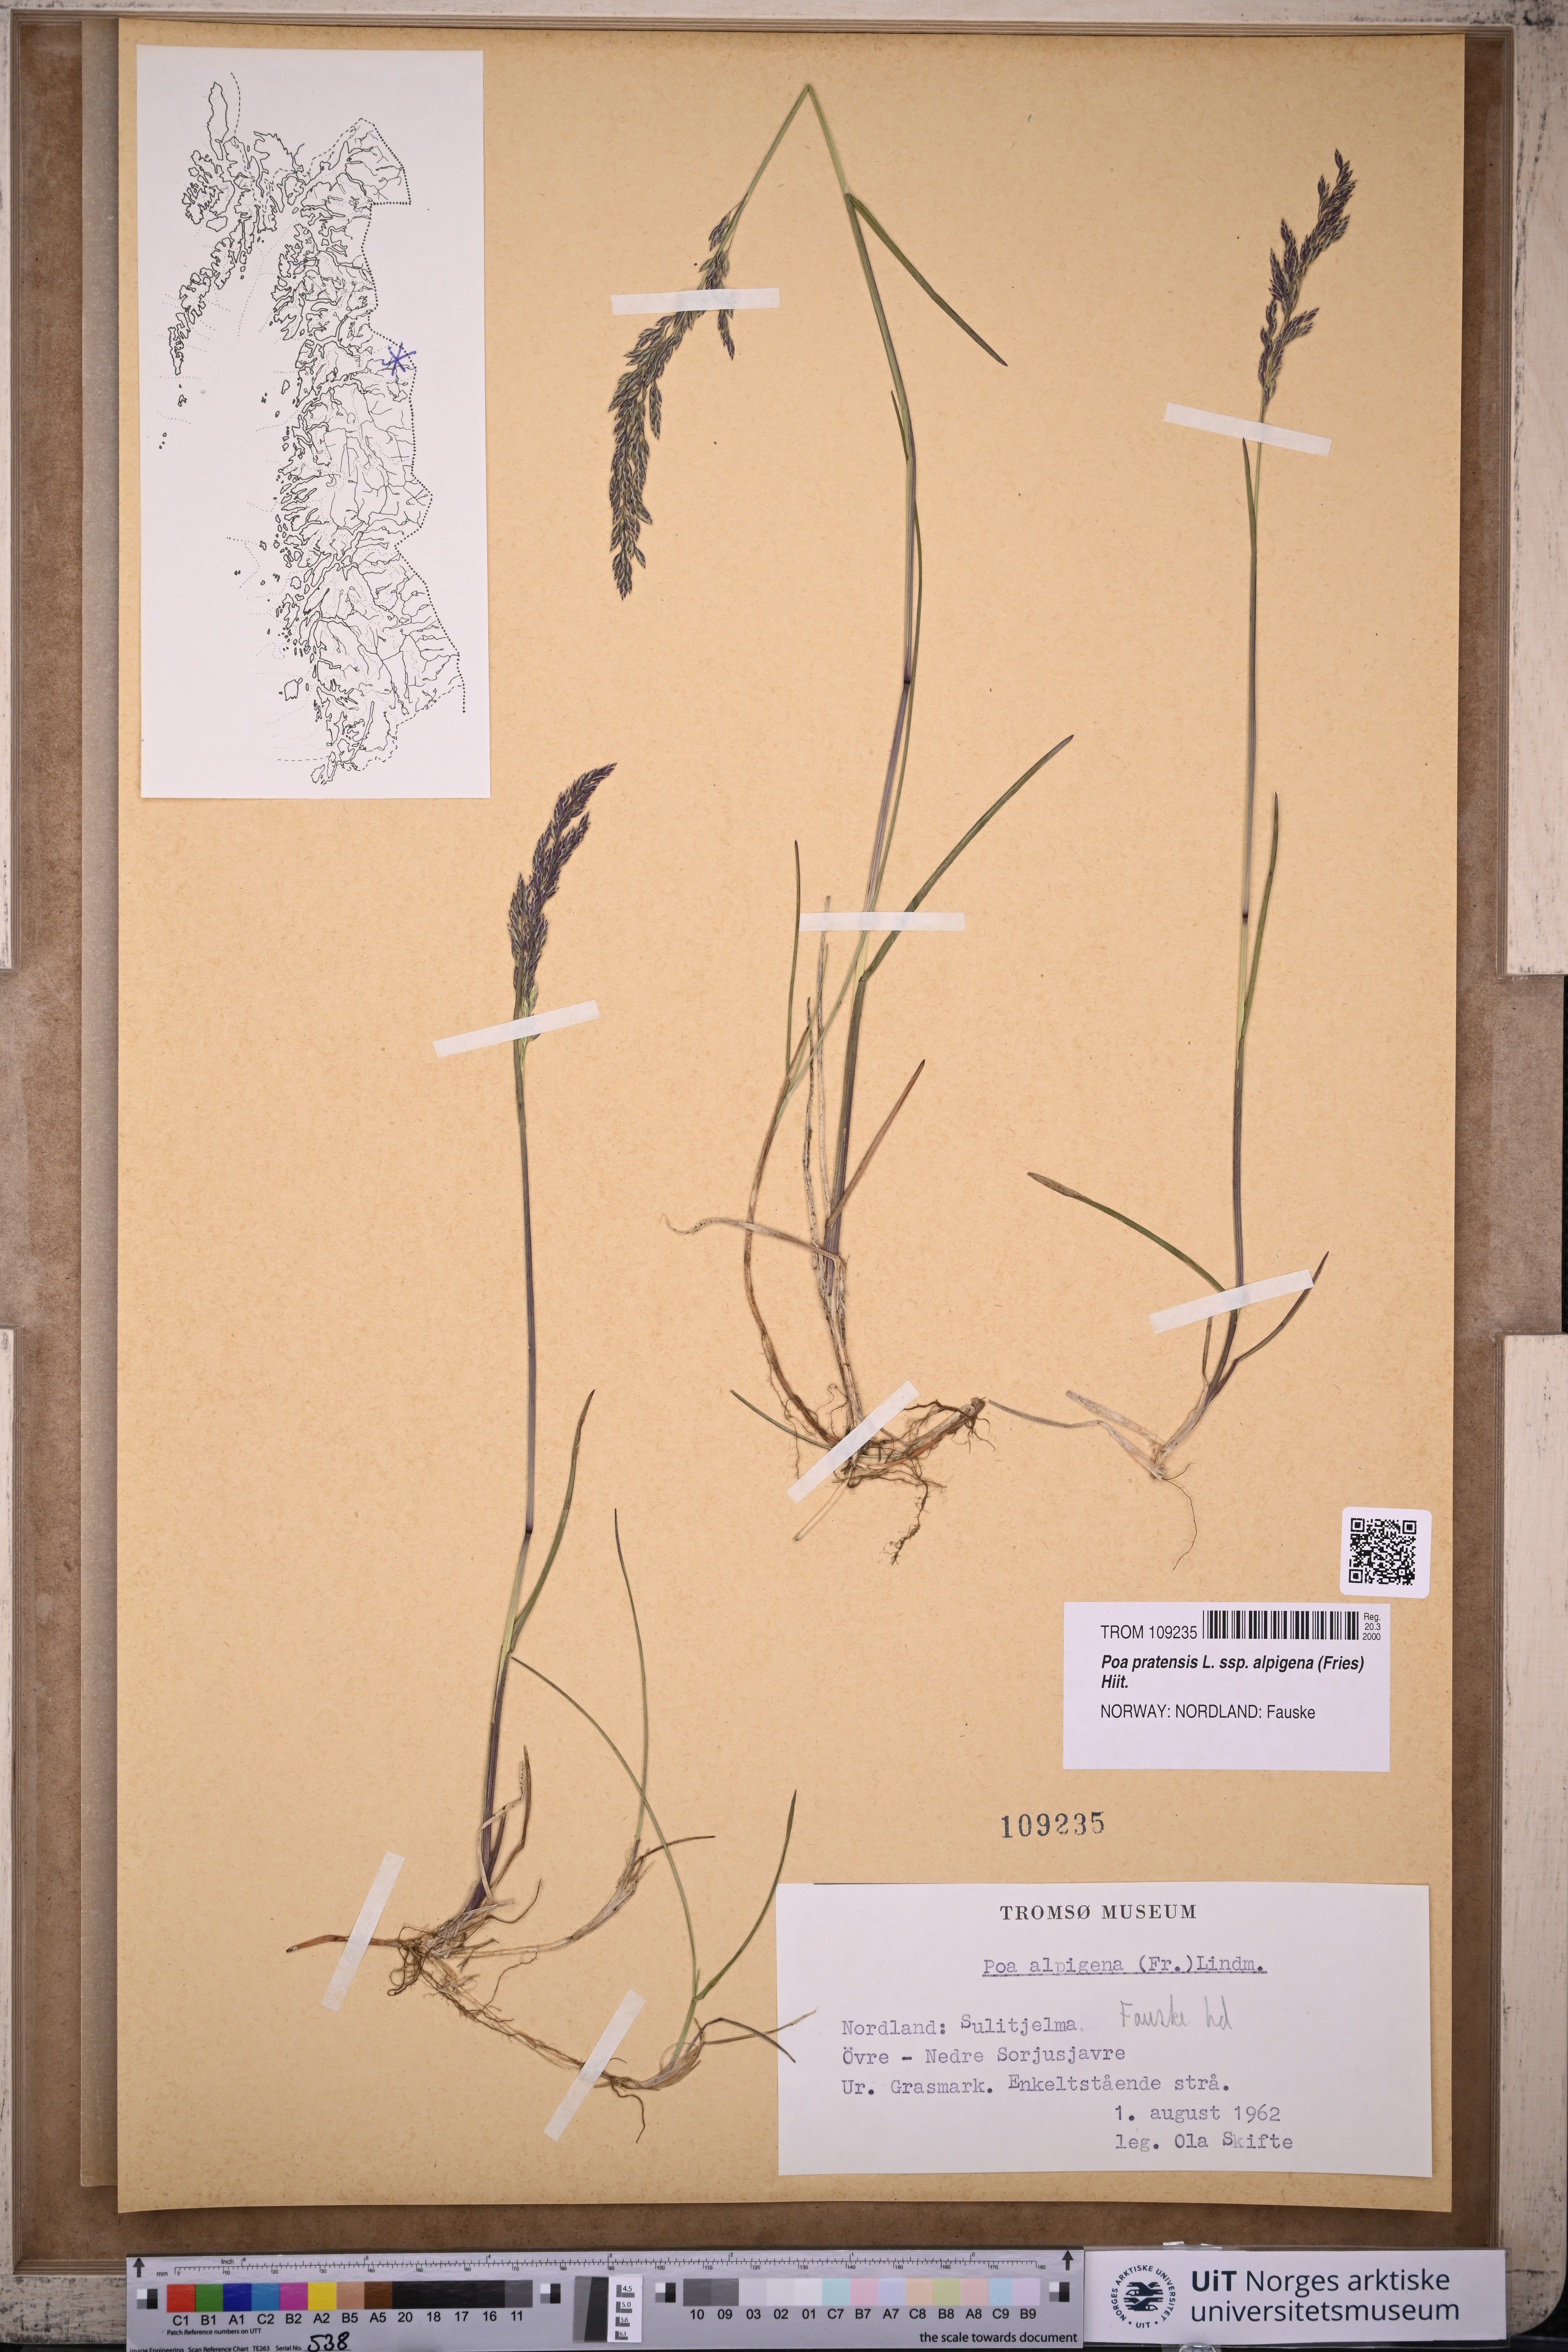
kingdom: Plantae
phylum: Tracheophyta
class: Liliopsida
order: Poales
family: Poaceae
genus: Poa
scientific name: Poa alpigena
